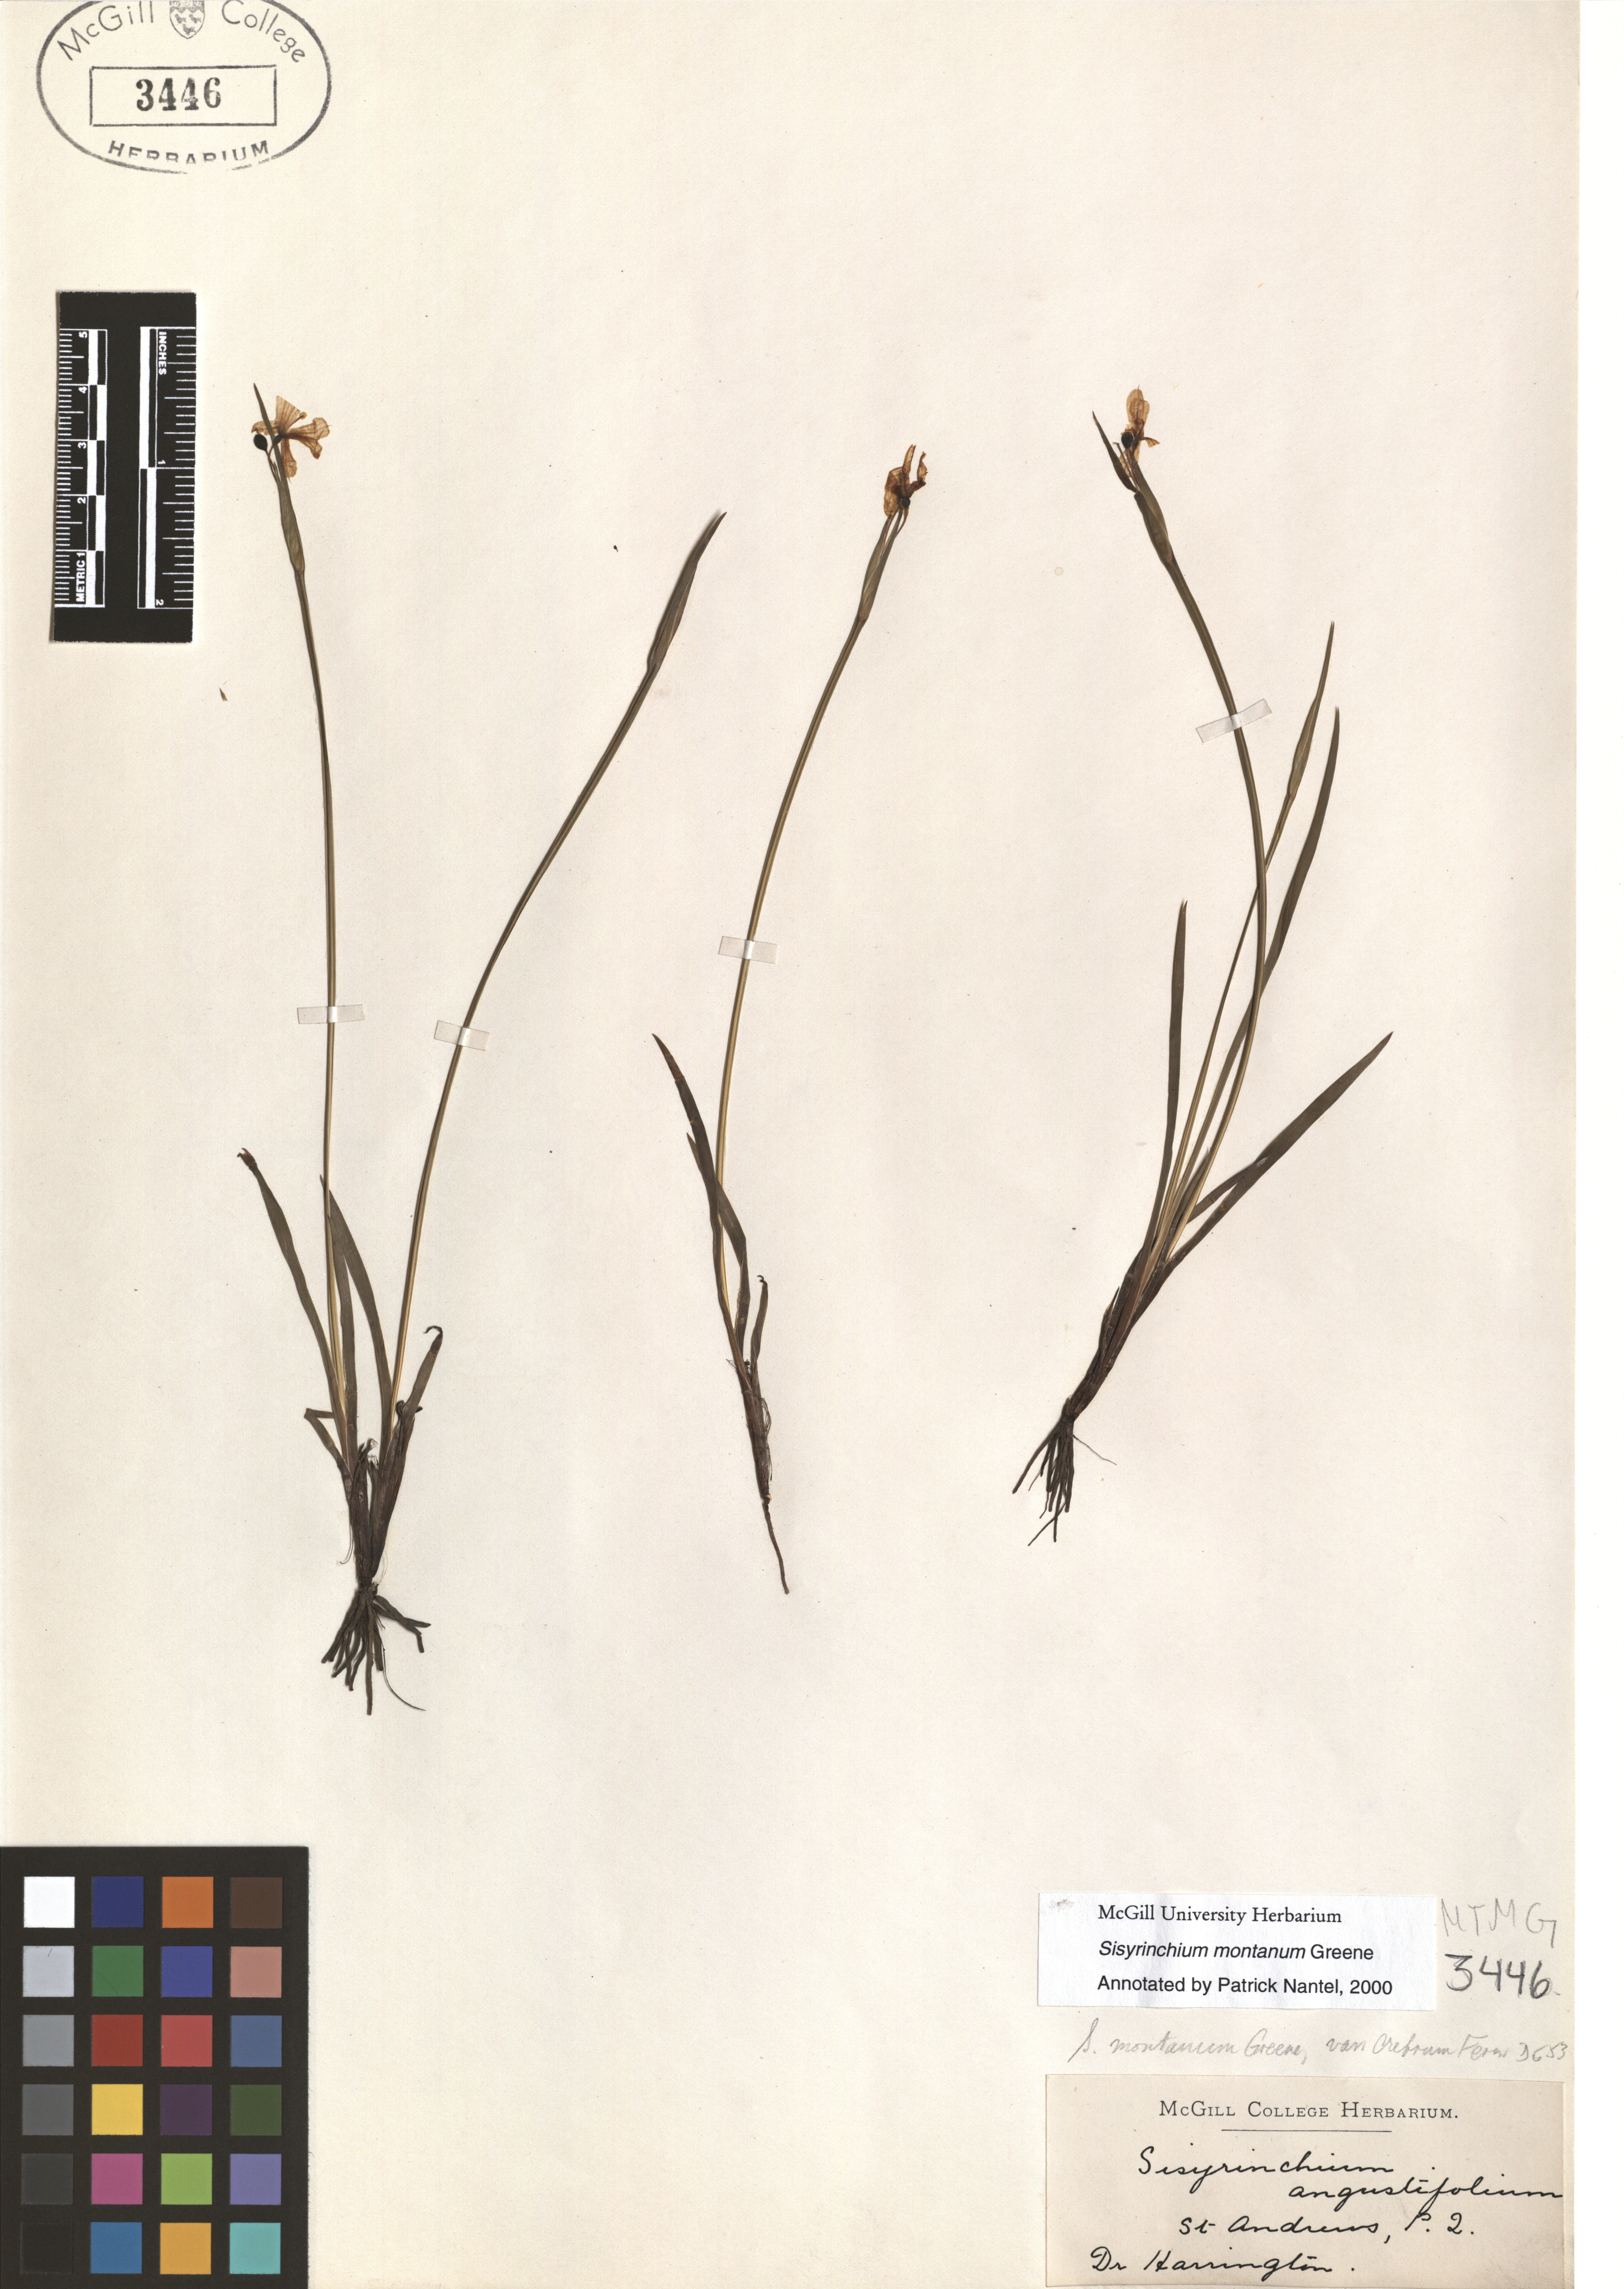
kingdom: Plantae
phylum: Tracheophyta
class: Liliopsida
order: Asparagales
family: Iridaceae
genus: Sisyrinchium
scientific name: Sisyrinchium montanum
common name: American blue-eyed-grass
